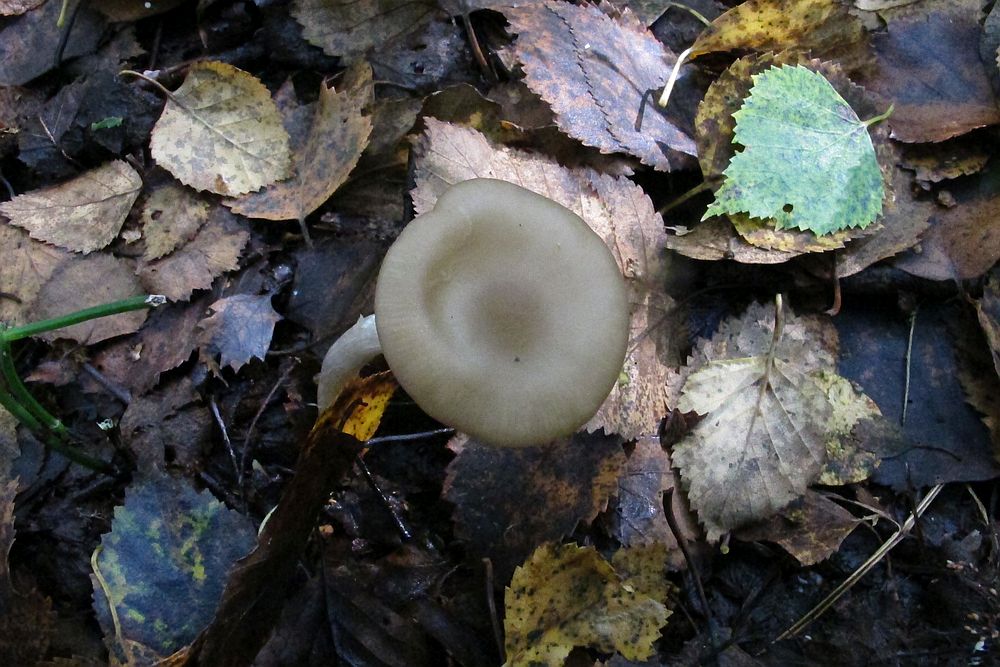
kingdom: Fungi
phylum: Basidiomycota
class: Agaricomycetes
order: Agaricales
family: Entolomataceae
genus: Entoloma
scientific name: Entoloma sericatum
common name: rank rødblad
